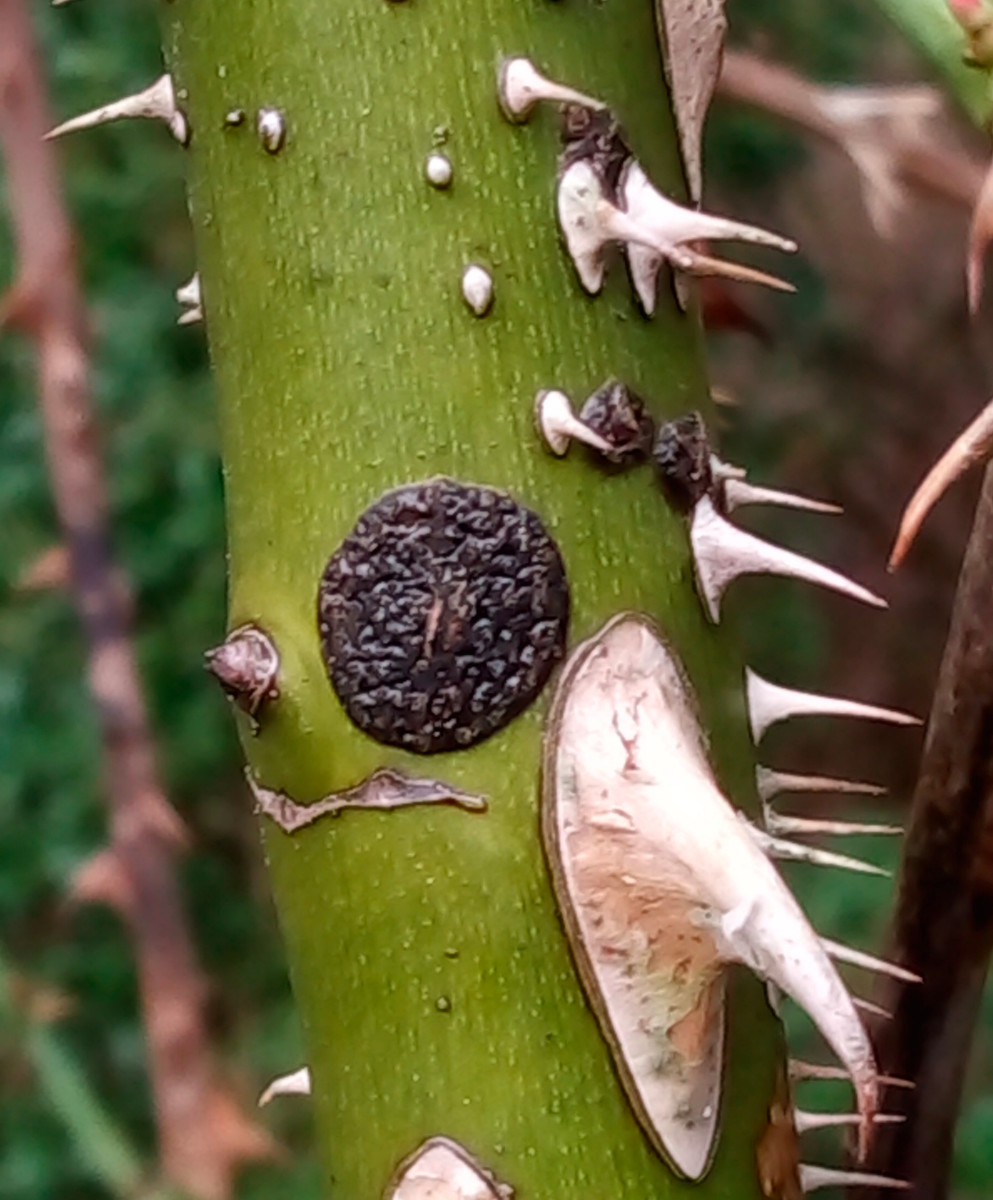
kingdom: Fungi
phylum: Ascomycota
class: Dothideomycetes
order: Botryosphaeriales
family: Botryosphaeriaceae
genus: Botryosphaeria
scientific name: Botryosphaeria dothidea
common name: Asteromyia gall midge fungus
